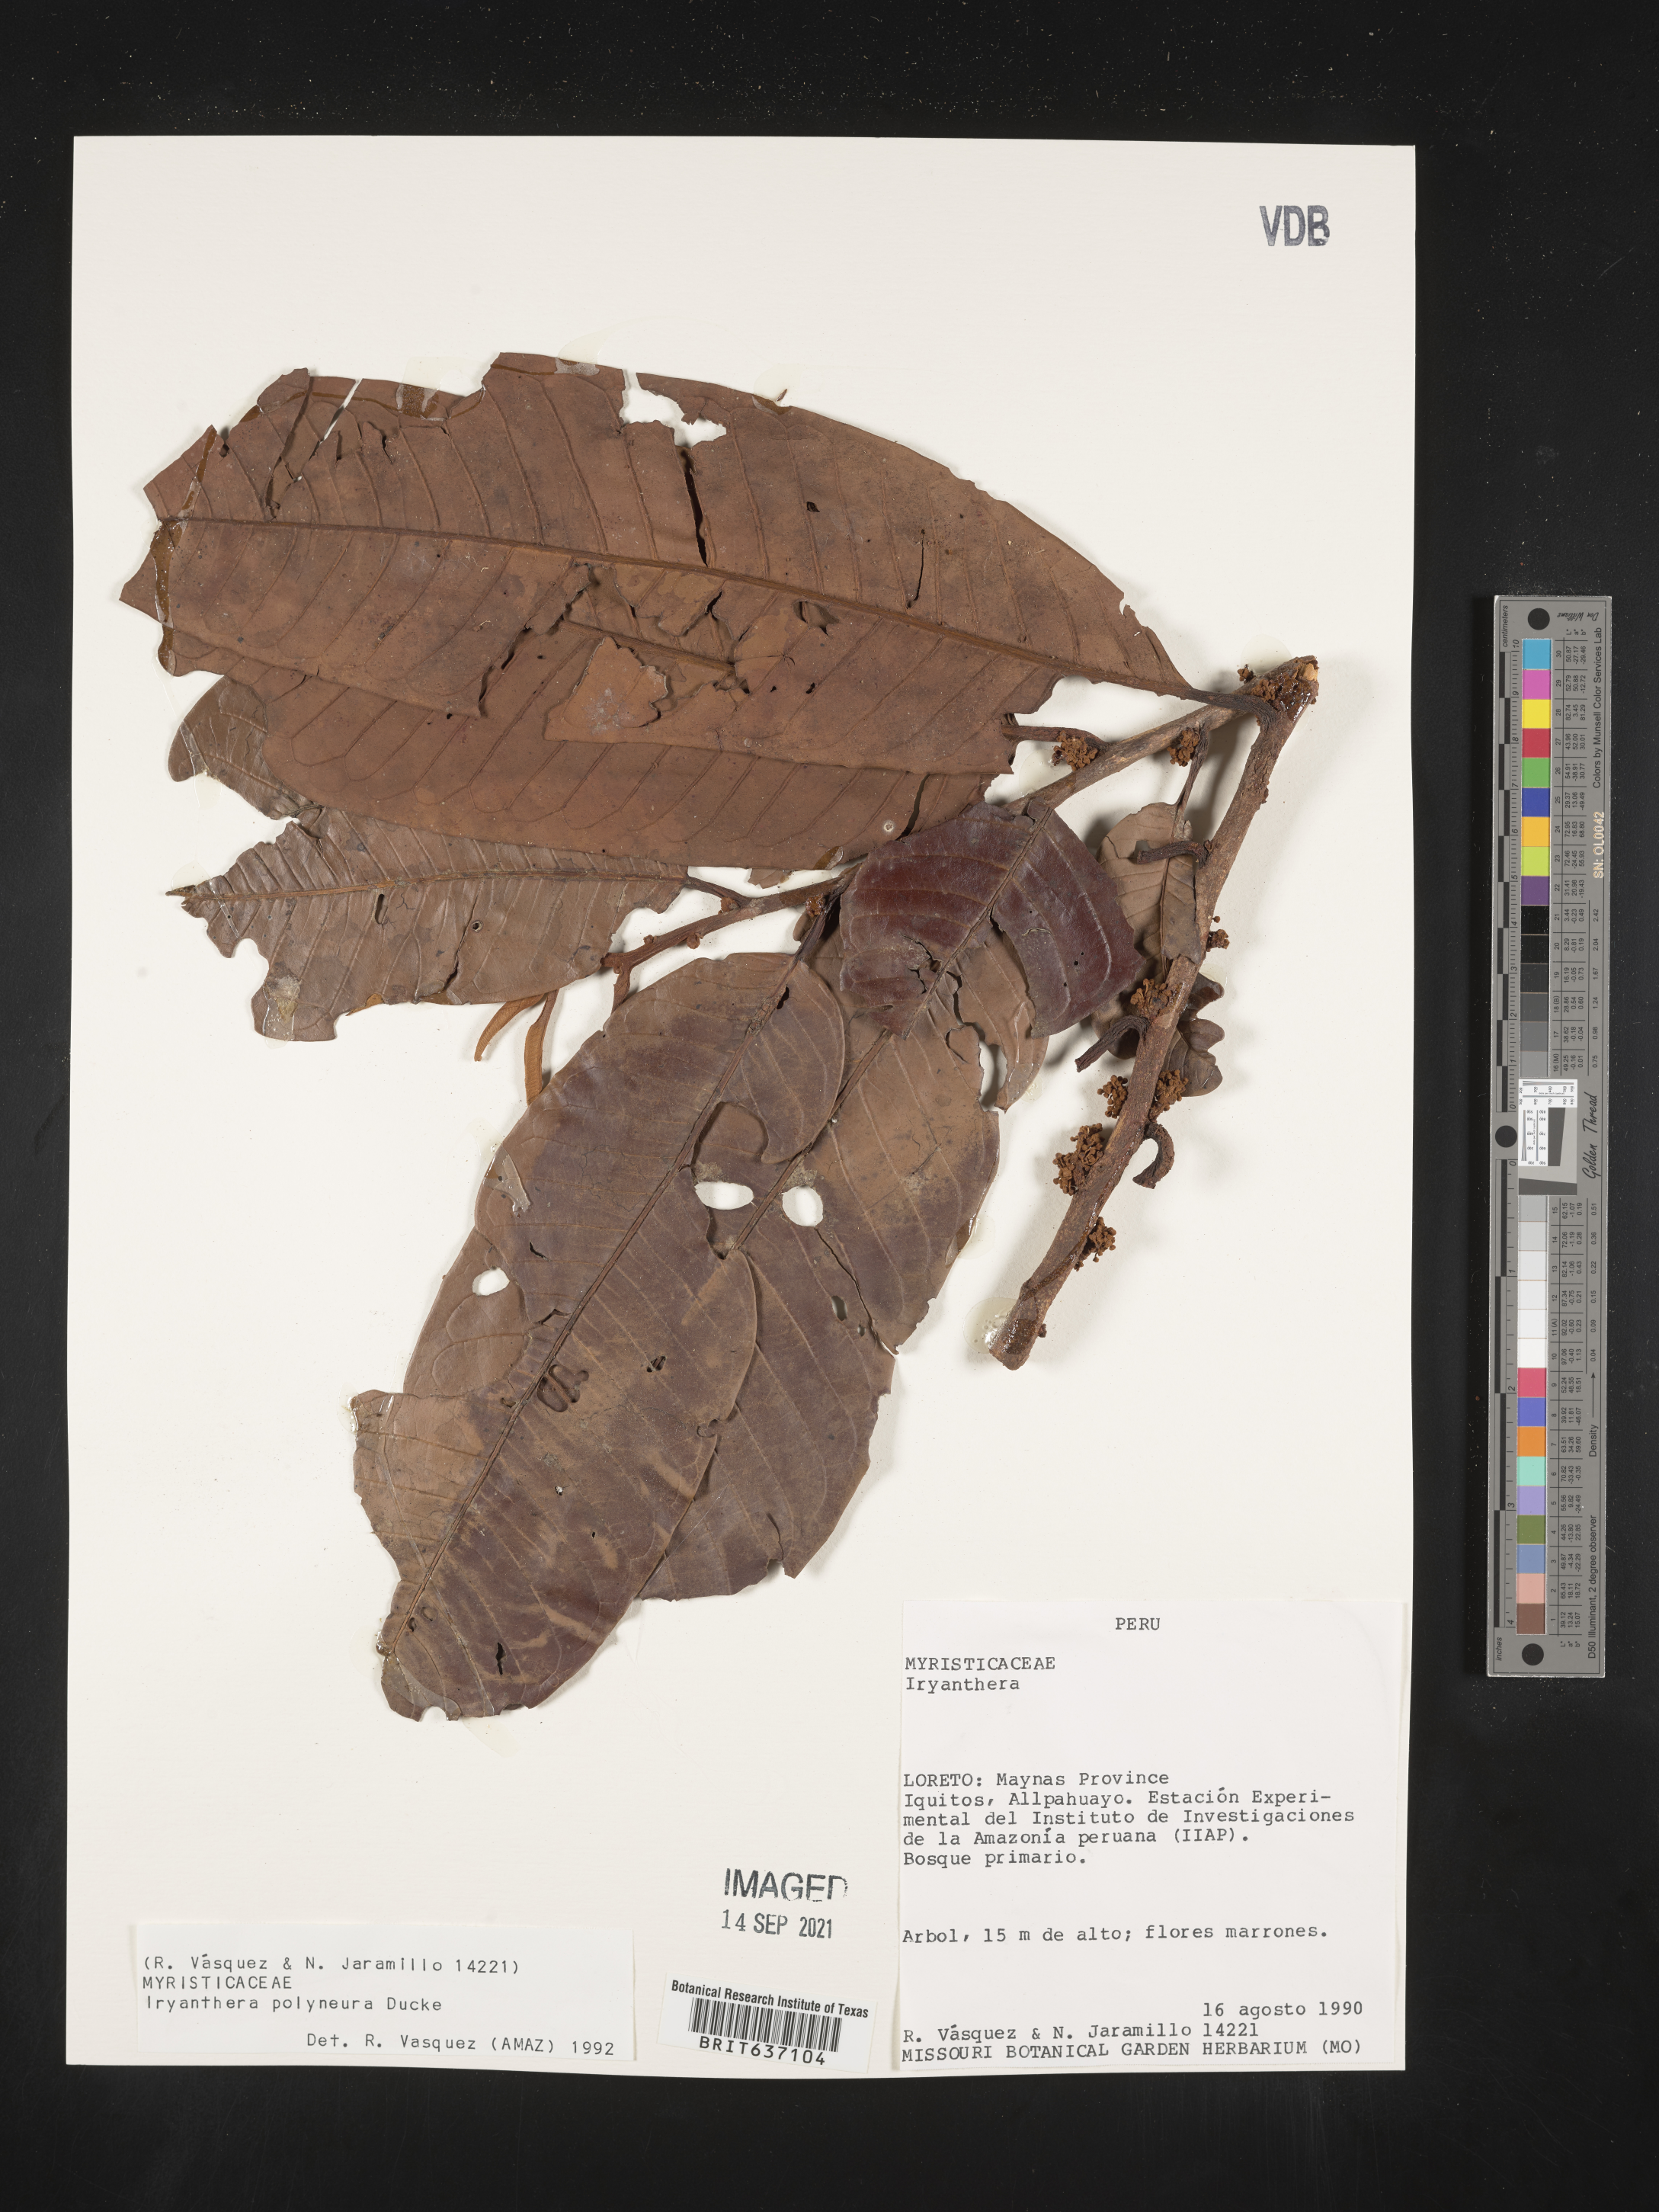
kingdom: Plantae
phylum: Tracheophyta
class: Magnoliopsida
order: Magnoliales
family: Myristicaceae
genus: Iryanthera
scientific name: Iryanthera
